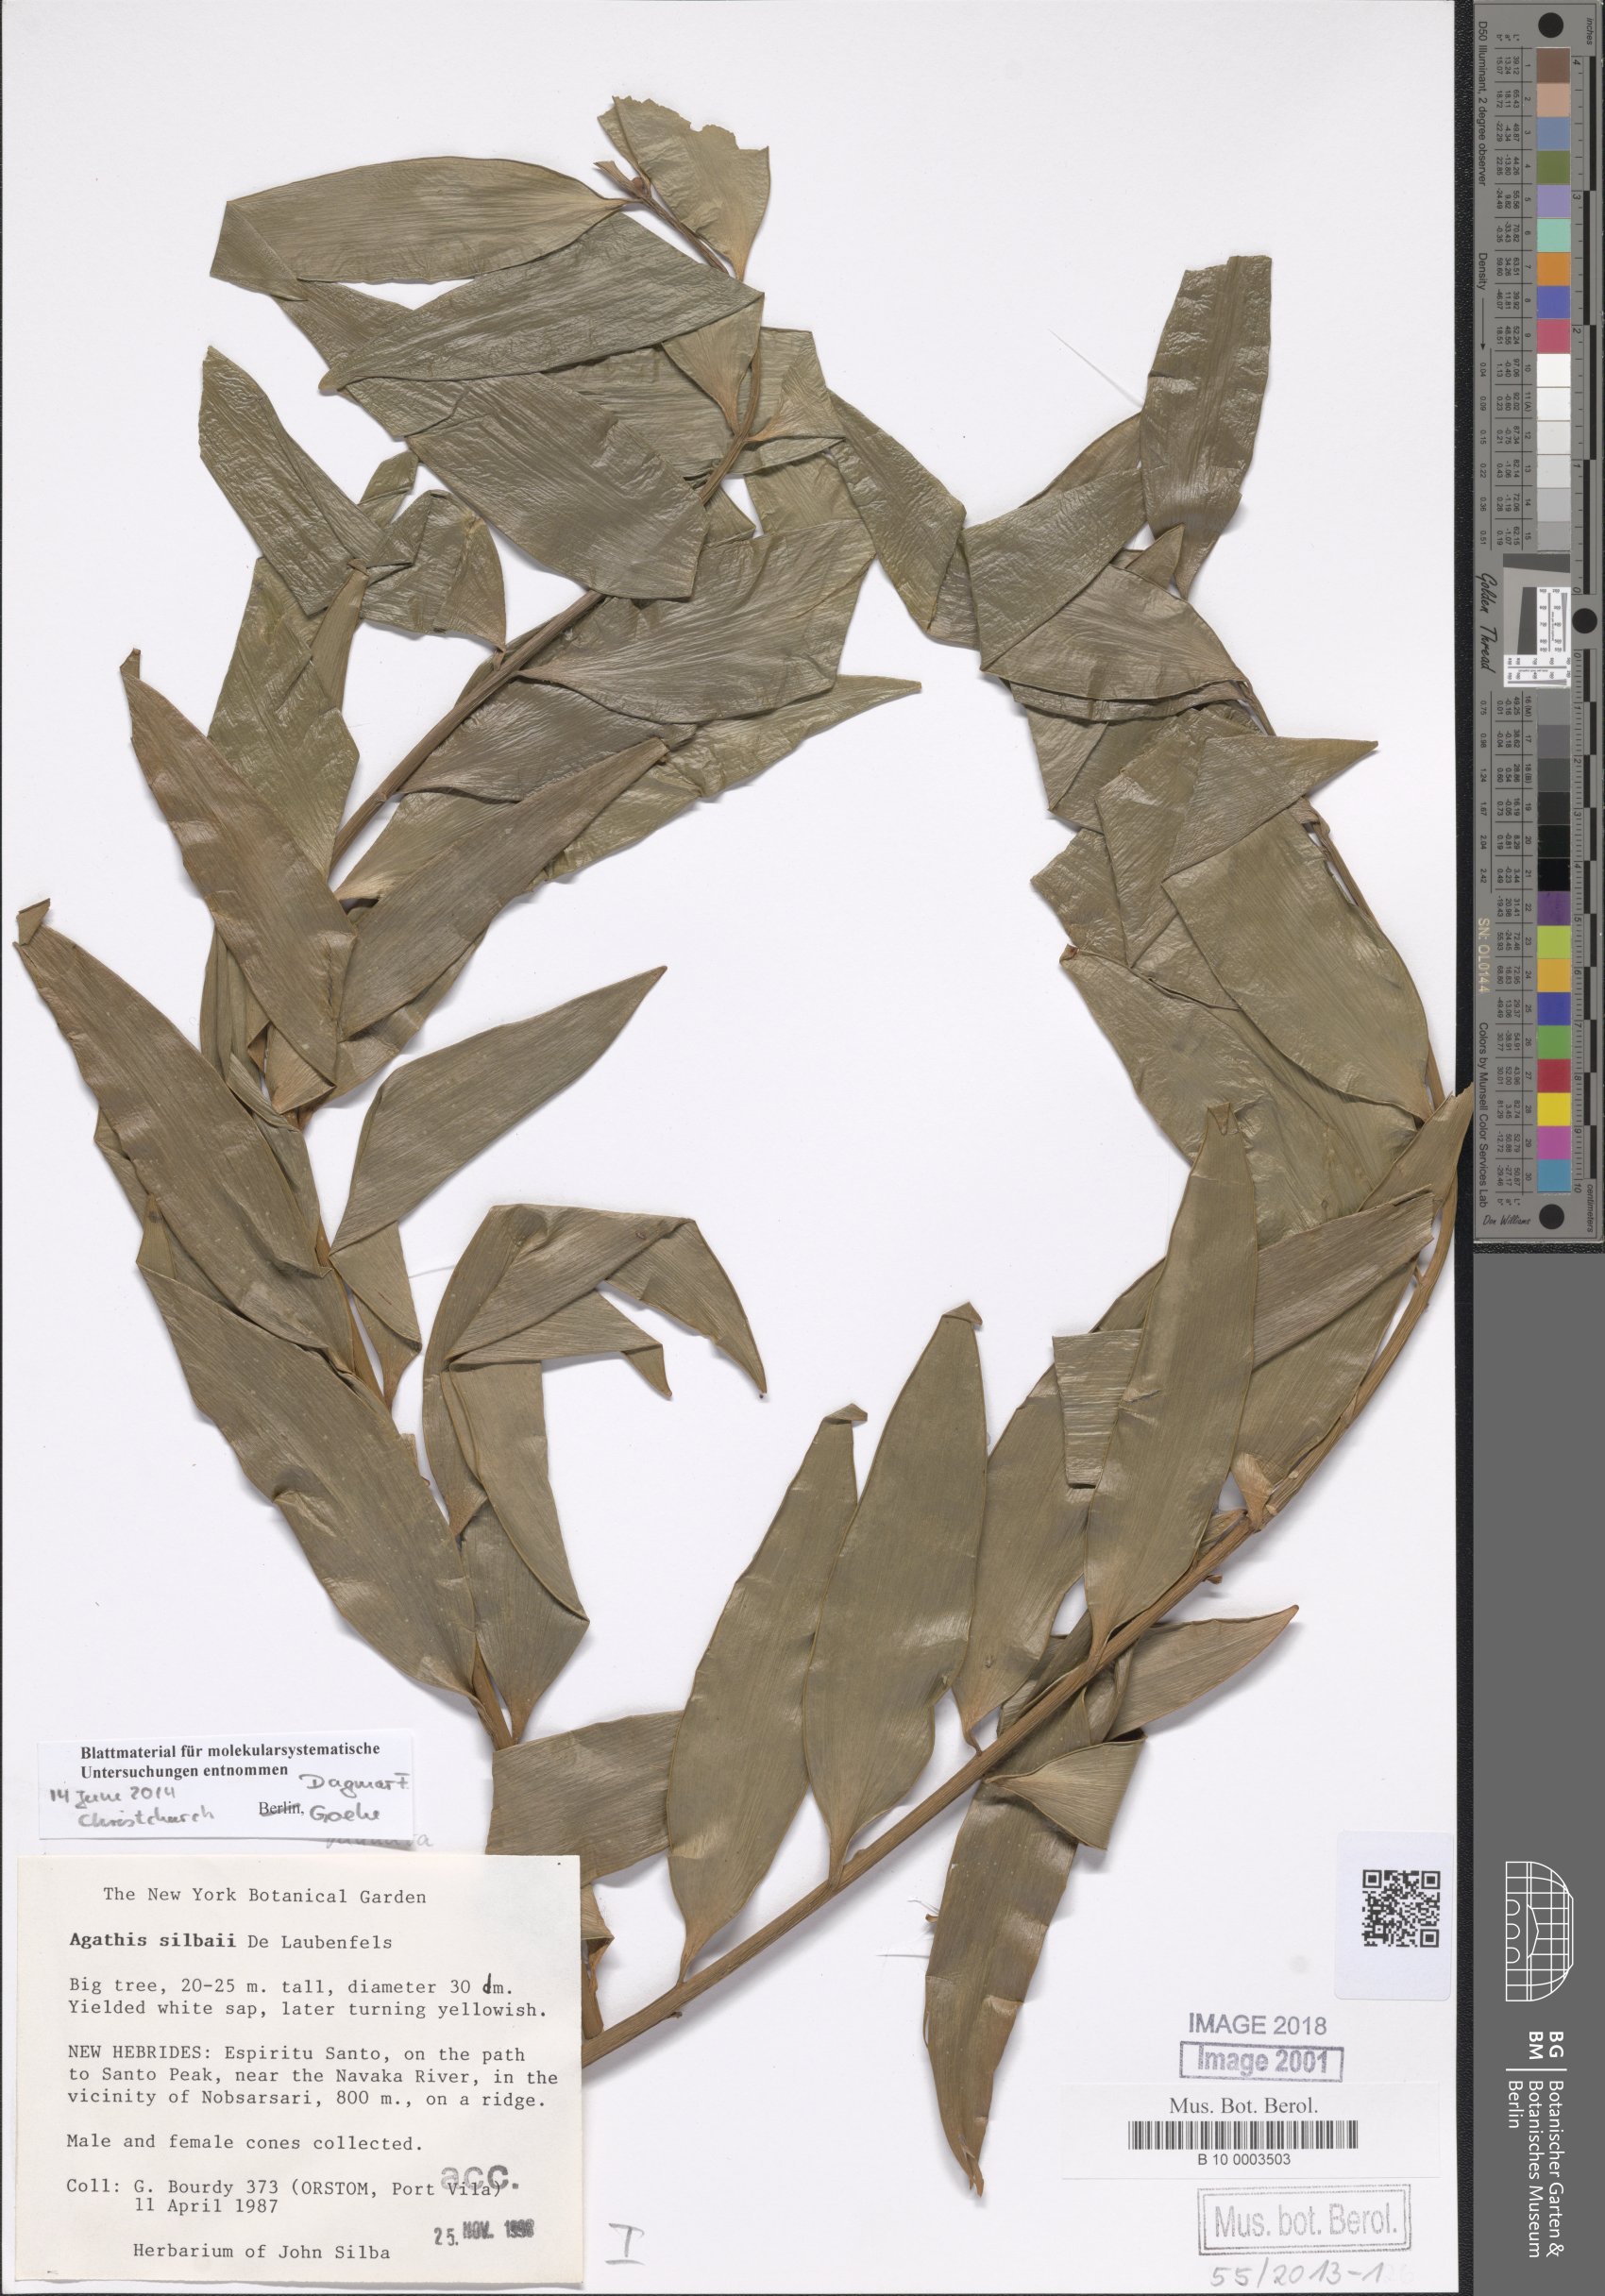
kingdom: Plantae
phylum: Tracheophyta
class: Pinopsida
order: Pinales
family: Araucariaceae
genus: Agathis
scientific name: Agathis silbae
